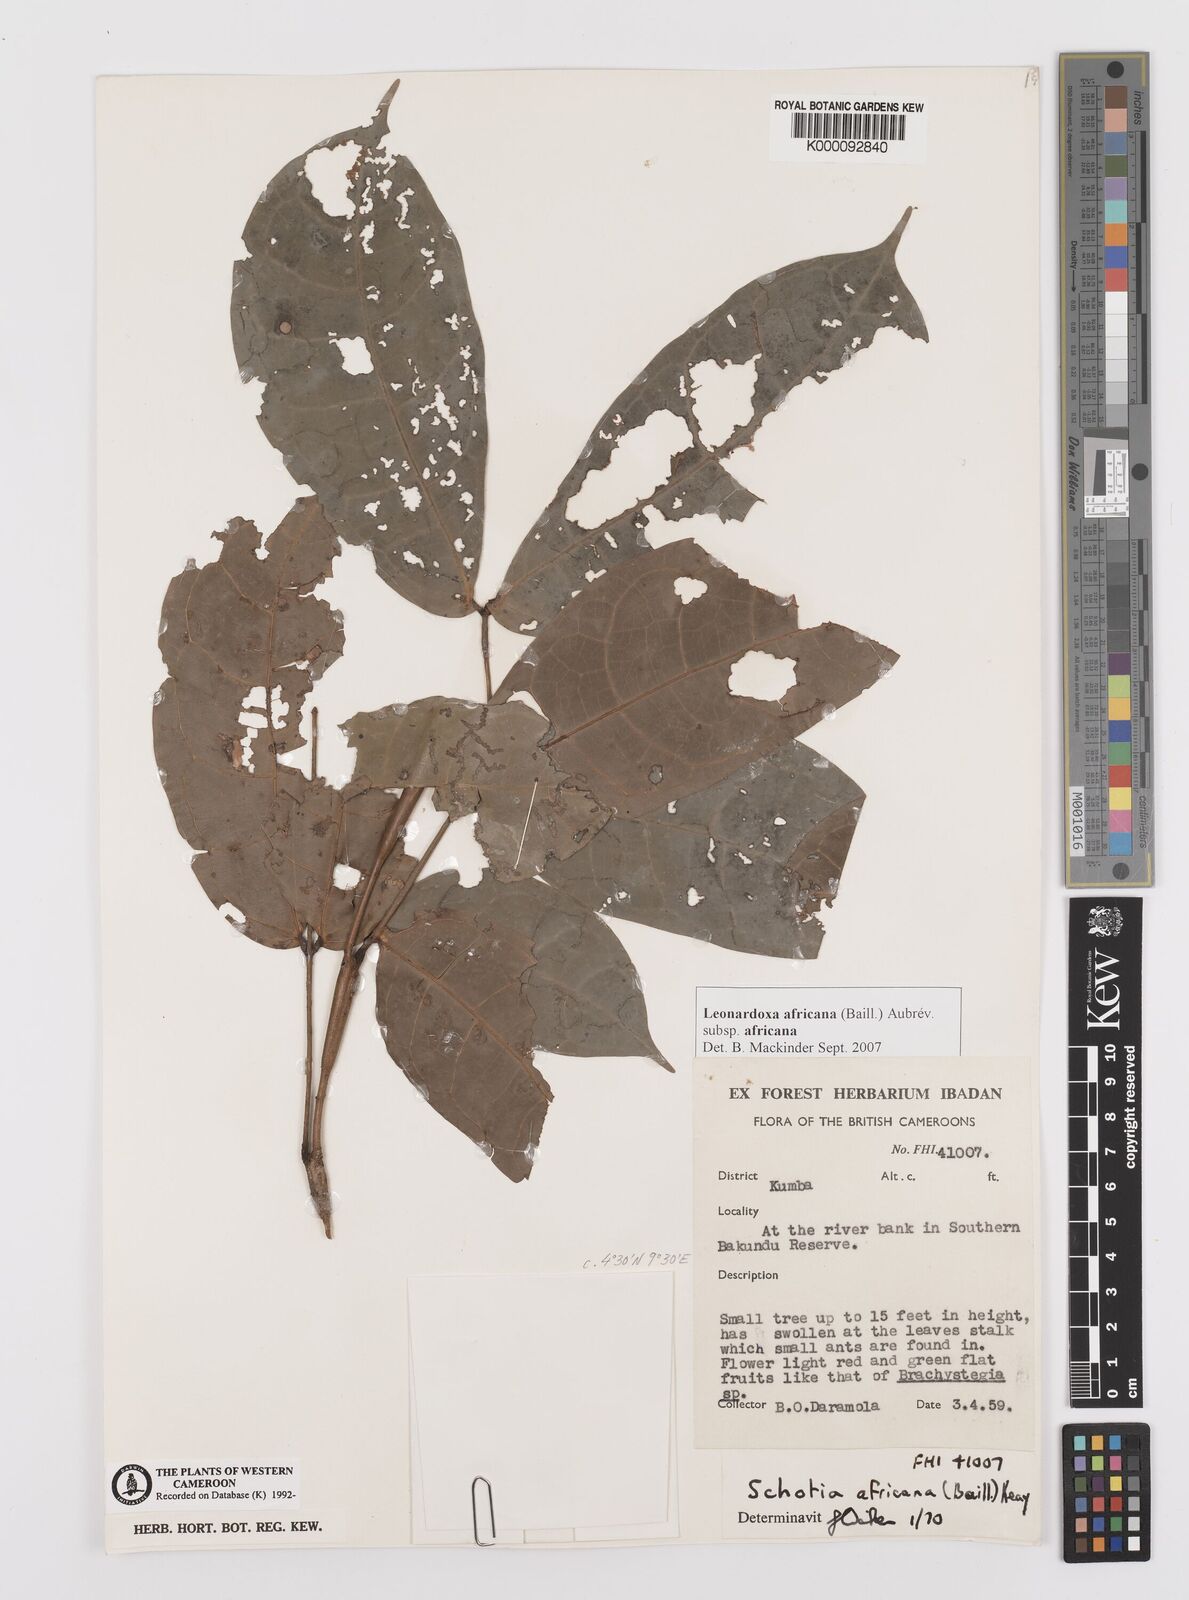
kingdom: Plantae
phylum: Tracheophyta
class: Magnoliopsida
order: Fabales
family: Fabaceae
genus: Schotia
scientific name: Schotia
